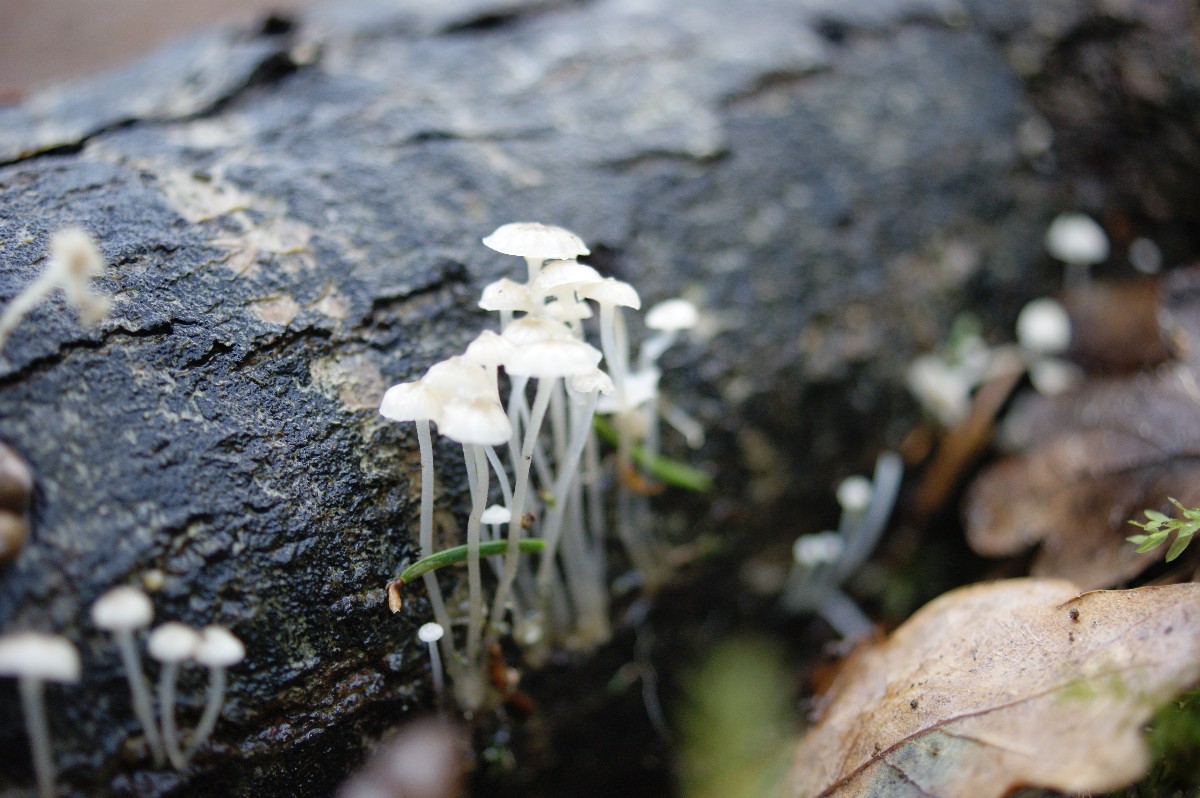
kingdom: Fungi
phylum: Basidiomycota
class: Agaricomycetes
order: Agaricales
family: Porotheleaceae
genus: Phloeomana
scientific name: Phloeomana speirea
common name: kvist-huesvamp
